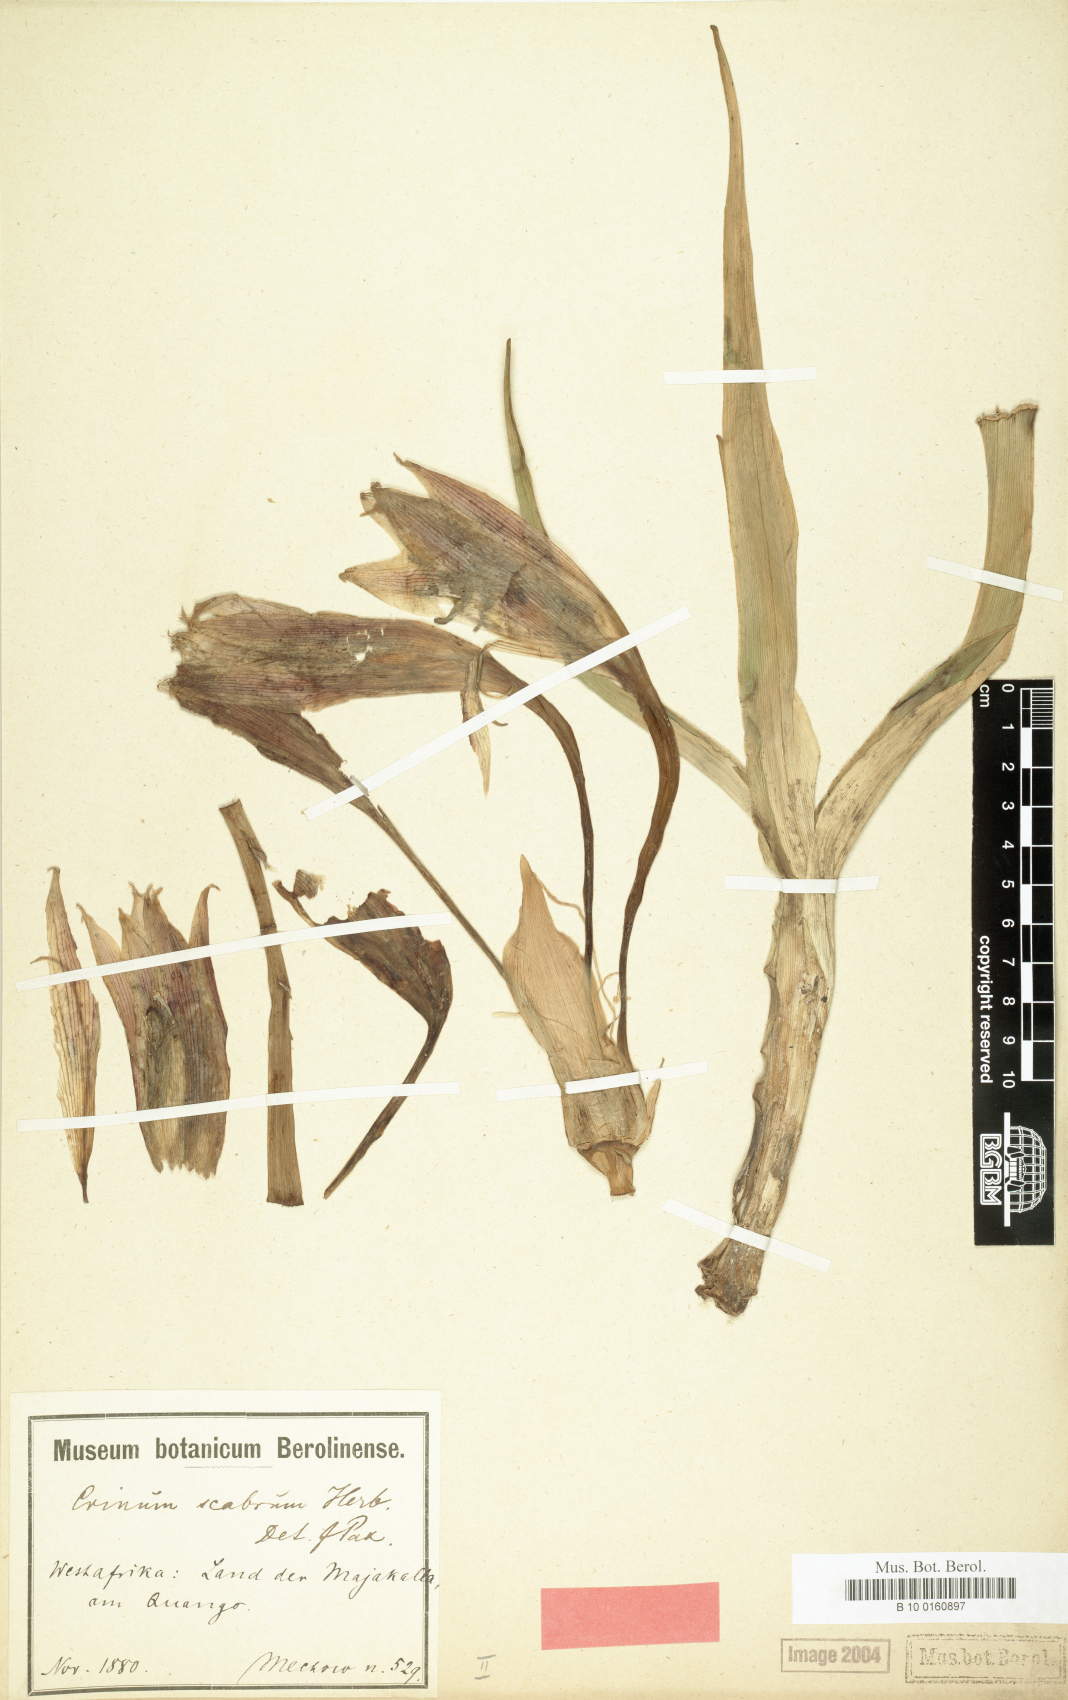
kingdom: Plantae
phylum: Tracheophyta
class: Liliopsida
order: Asparagales
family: Amaryllidaceae
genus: Crinum
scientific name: Crinum majakallense
